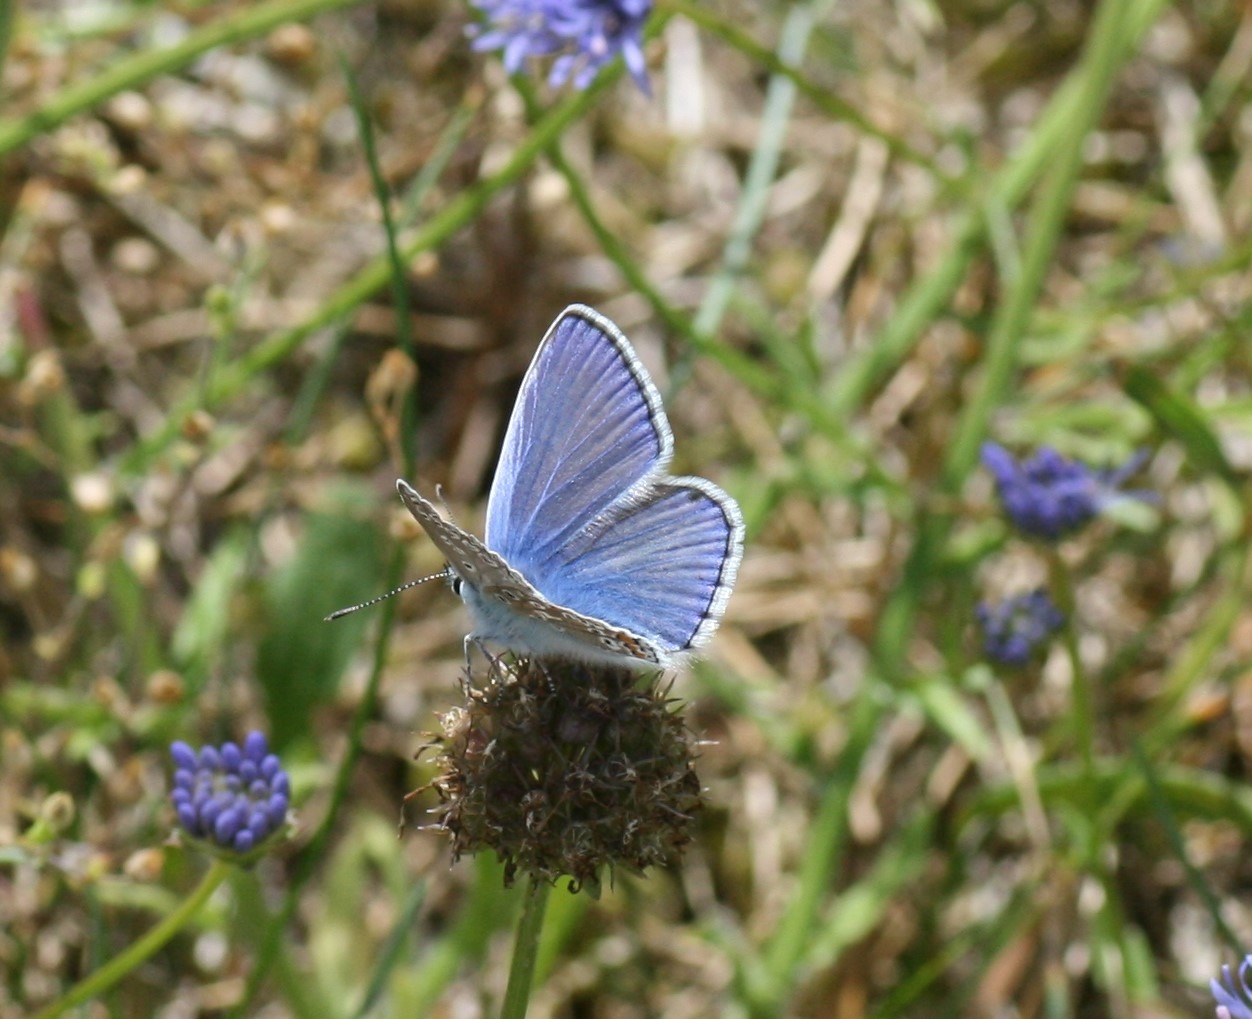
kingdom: Animalia
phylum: Arthropoda
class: Insecta
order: Lepidoptera
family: Lycaenidae
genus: Polyommatus
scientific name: Polyommatus icarus
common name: Almindelig blåfugl
